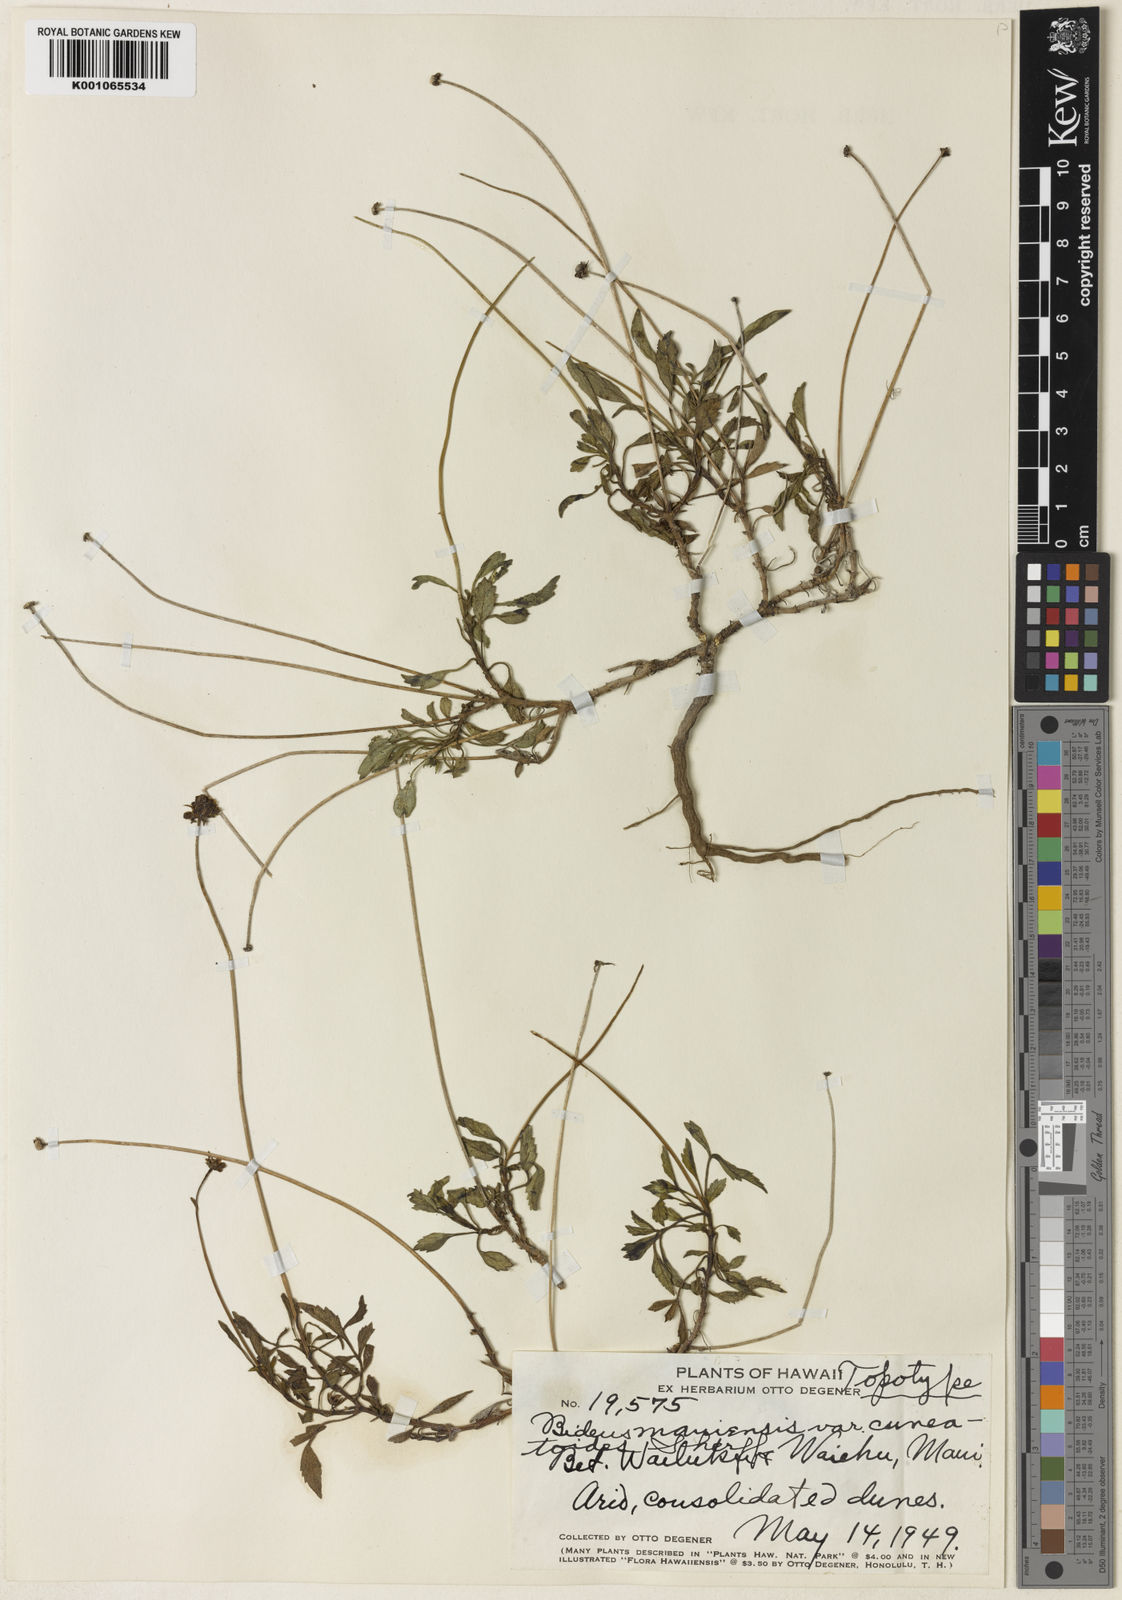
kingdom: Plantae
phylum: Tracheophyta
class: Magnoliopsida
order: Asterales
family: Asteraceae
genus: Bidens
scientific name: Bidens
